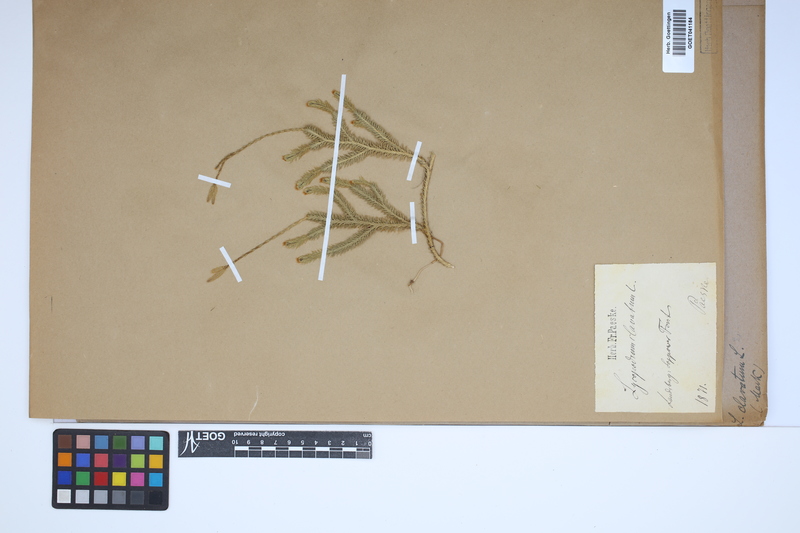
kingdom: Plantae
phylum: Tracheophyta
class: Lycopodiopsida
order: Lycopodiales
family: Lycopodiaceae
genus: Lycopodium
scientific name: Lycopodium clavatum
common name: Stag's-horn clubmoss
